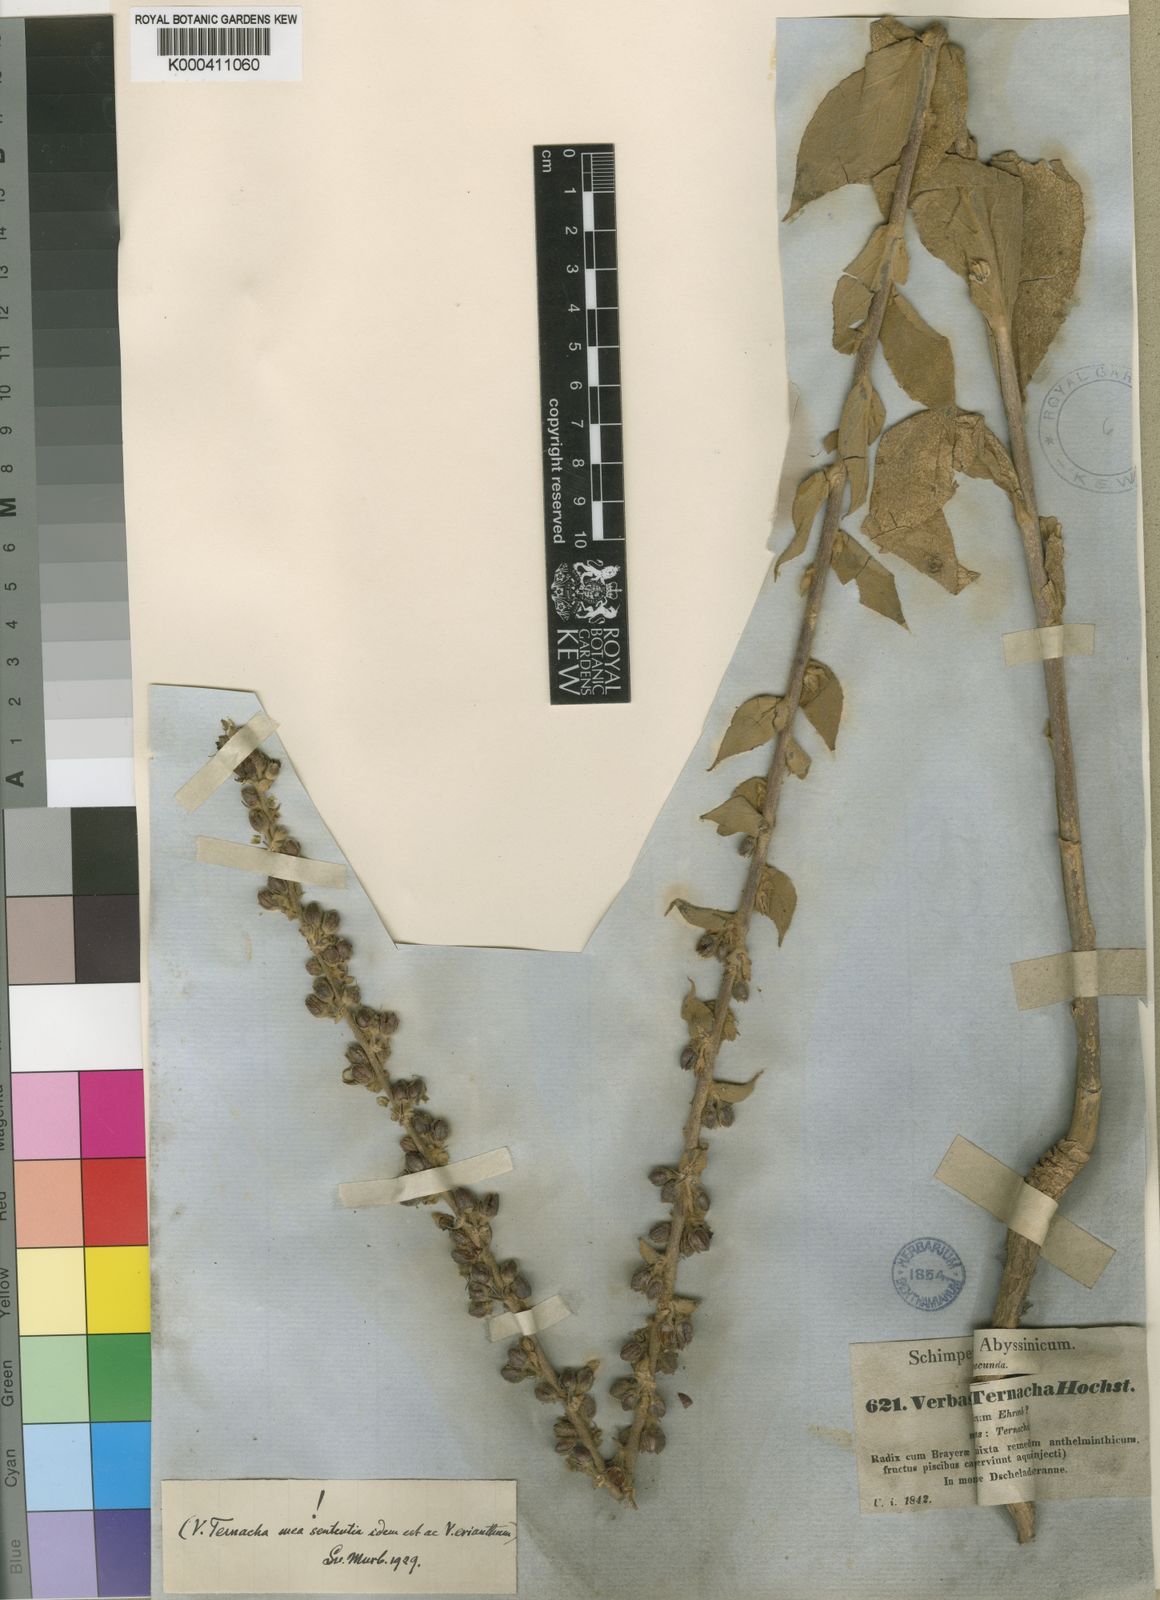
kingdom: Plantae
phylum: Tracheophyta
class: Magnoliopsida
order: Lamiales
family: Scrophulariaceae
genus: Verbascum
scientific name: Verbascum sinaiticum
